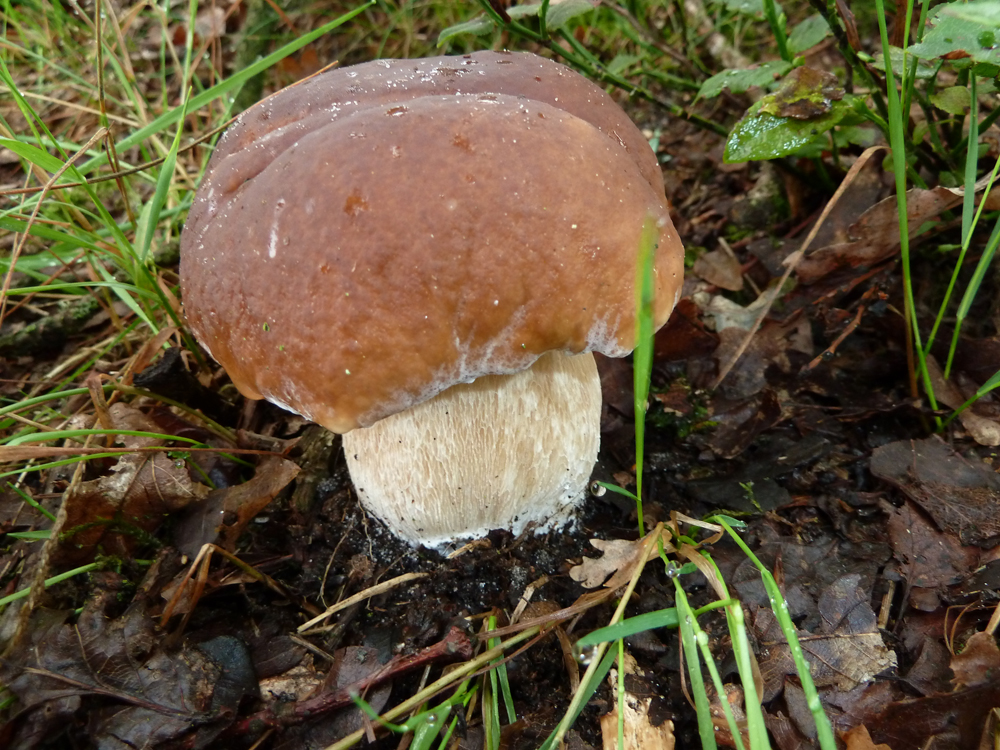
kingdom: Fungi
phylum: Basidiomycota
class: Agaricomycetes
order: Boletales
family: Boletaceae
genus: Boletus
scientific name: Boletus edulis
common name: Cep
